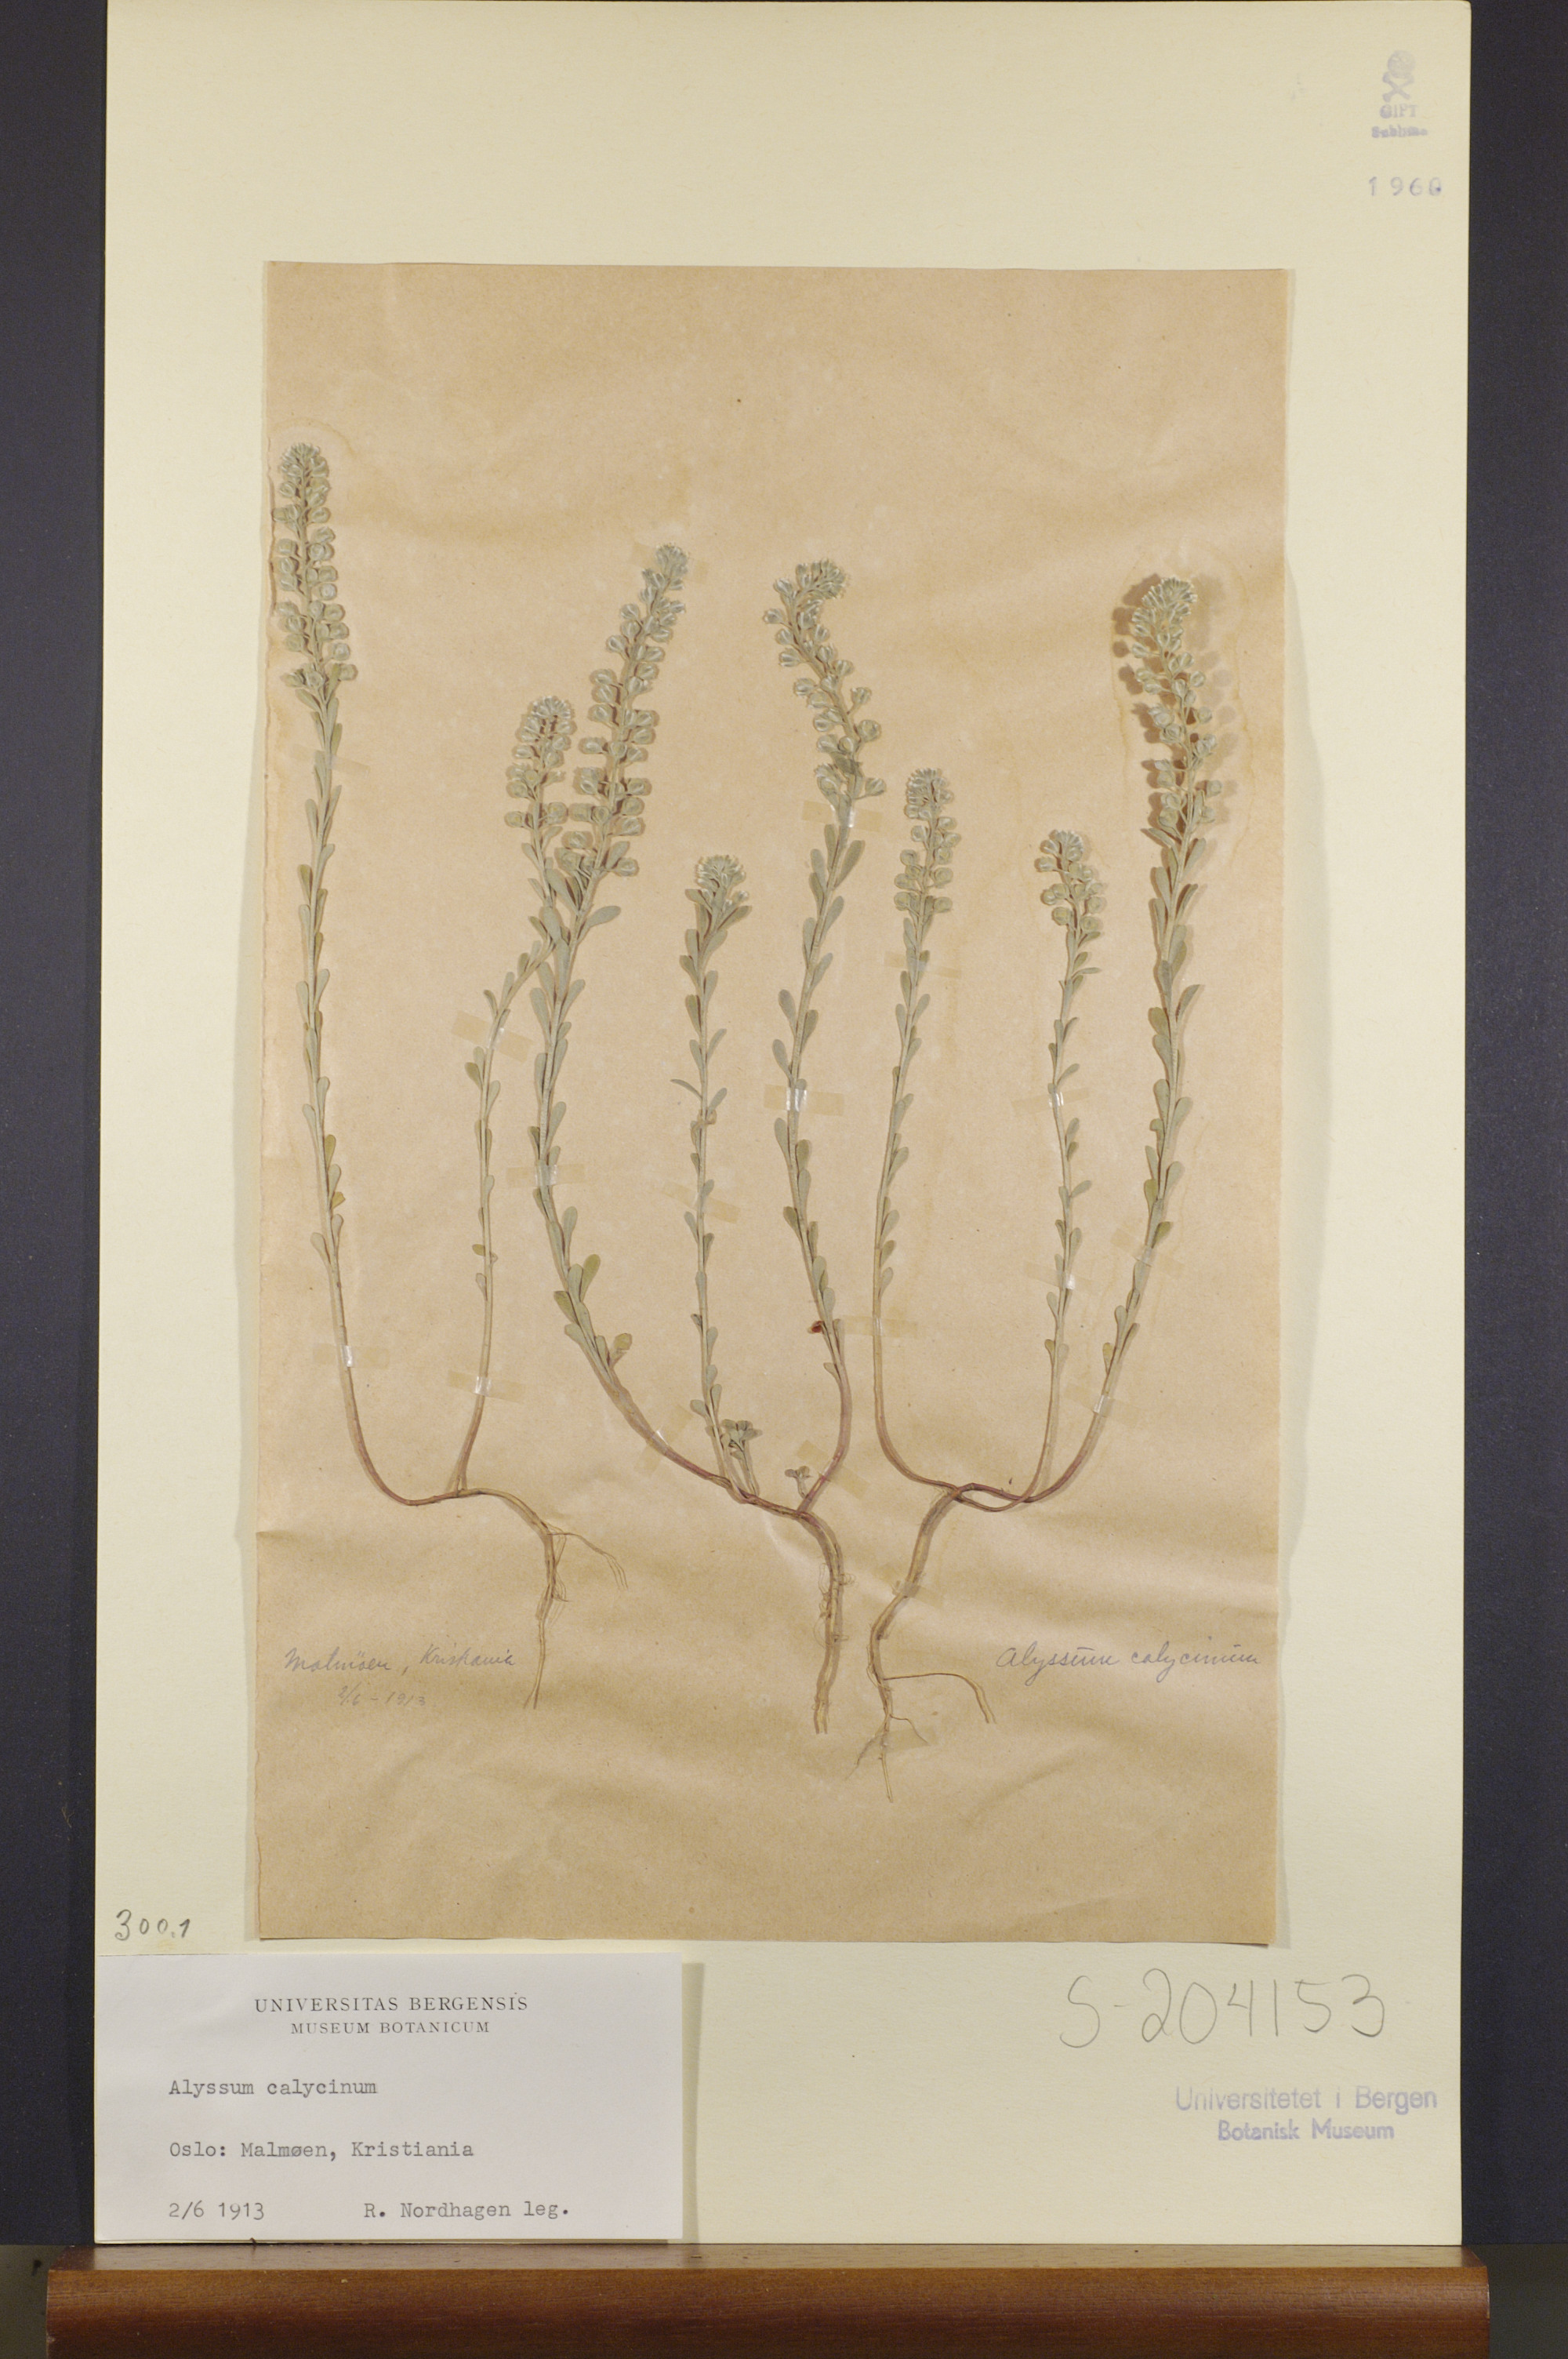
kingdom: Plantae
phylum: Tracheophyta
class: Magnoliopsida
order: Brassicales
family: Brassicaceae
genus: Alyssum
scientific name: Alyssum alyssoides
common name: Small alison
